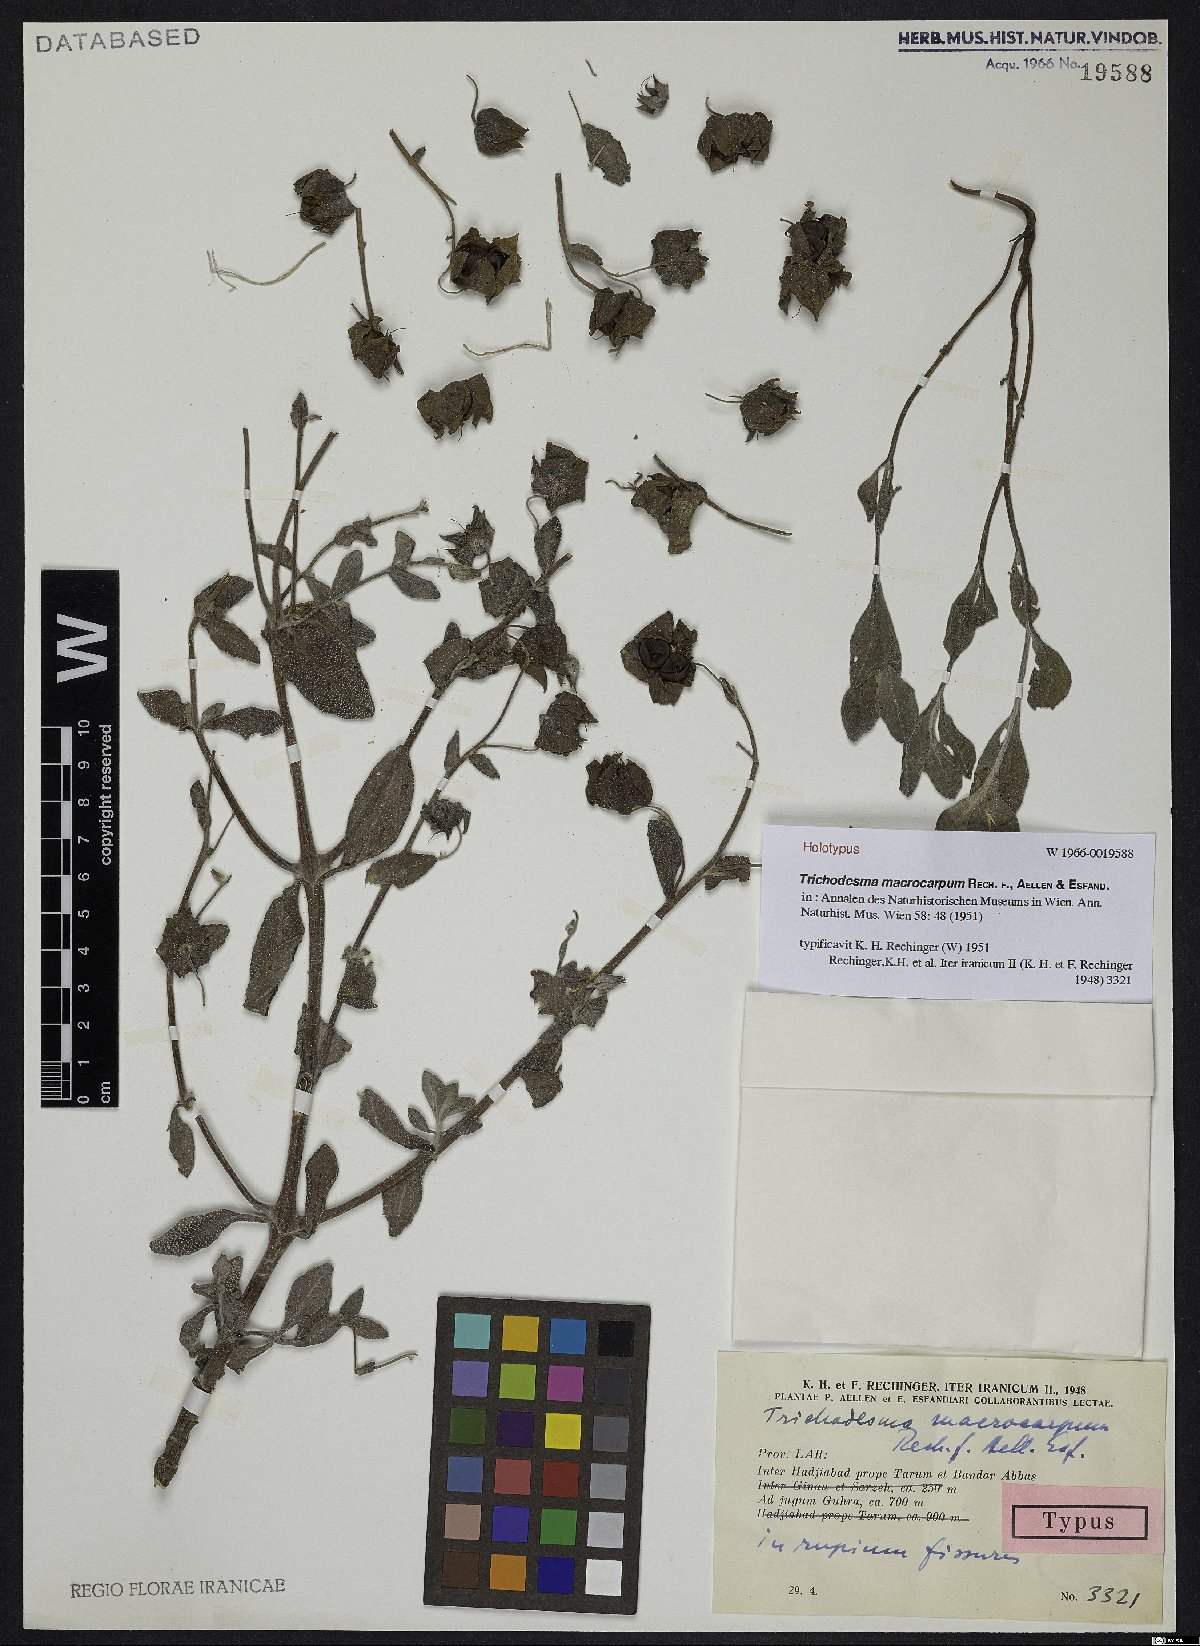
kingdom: Plantae
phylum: Tracheophyta
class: Magnoliopsida
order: Boraginales
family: Boraginaceae
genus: Trichodesma
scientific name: Trichodesma macrocarpum
